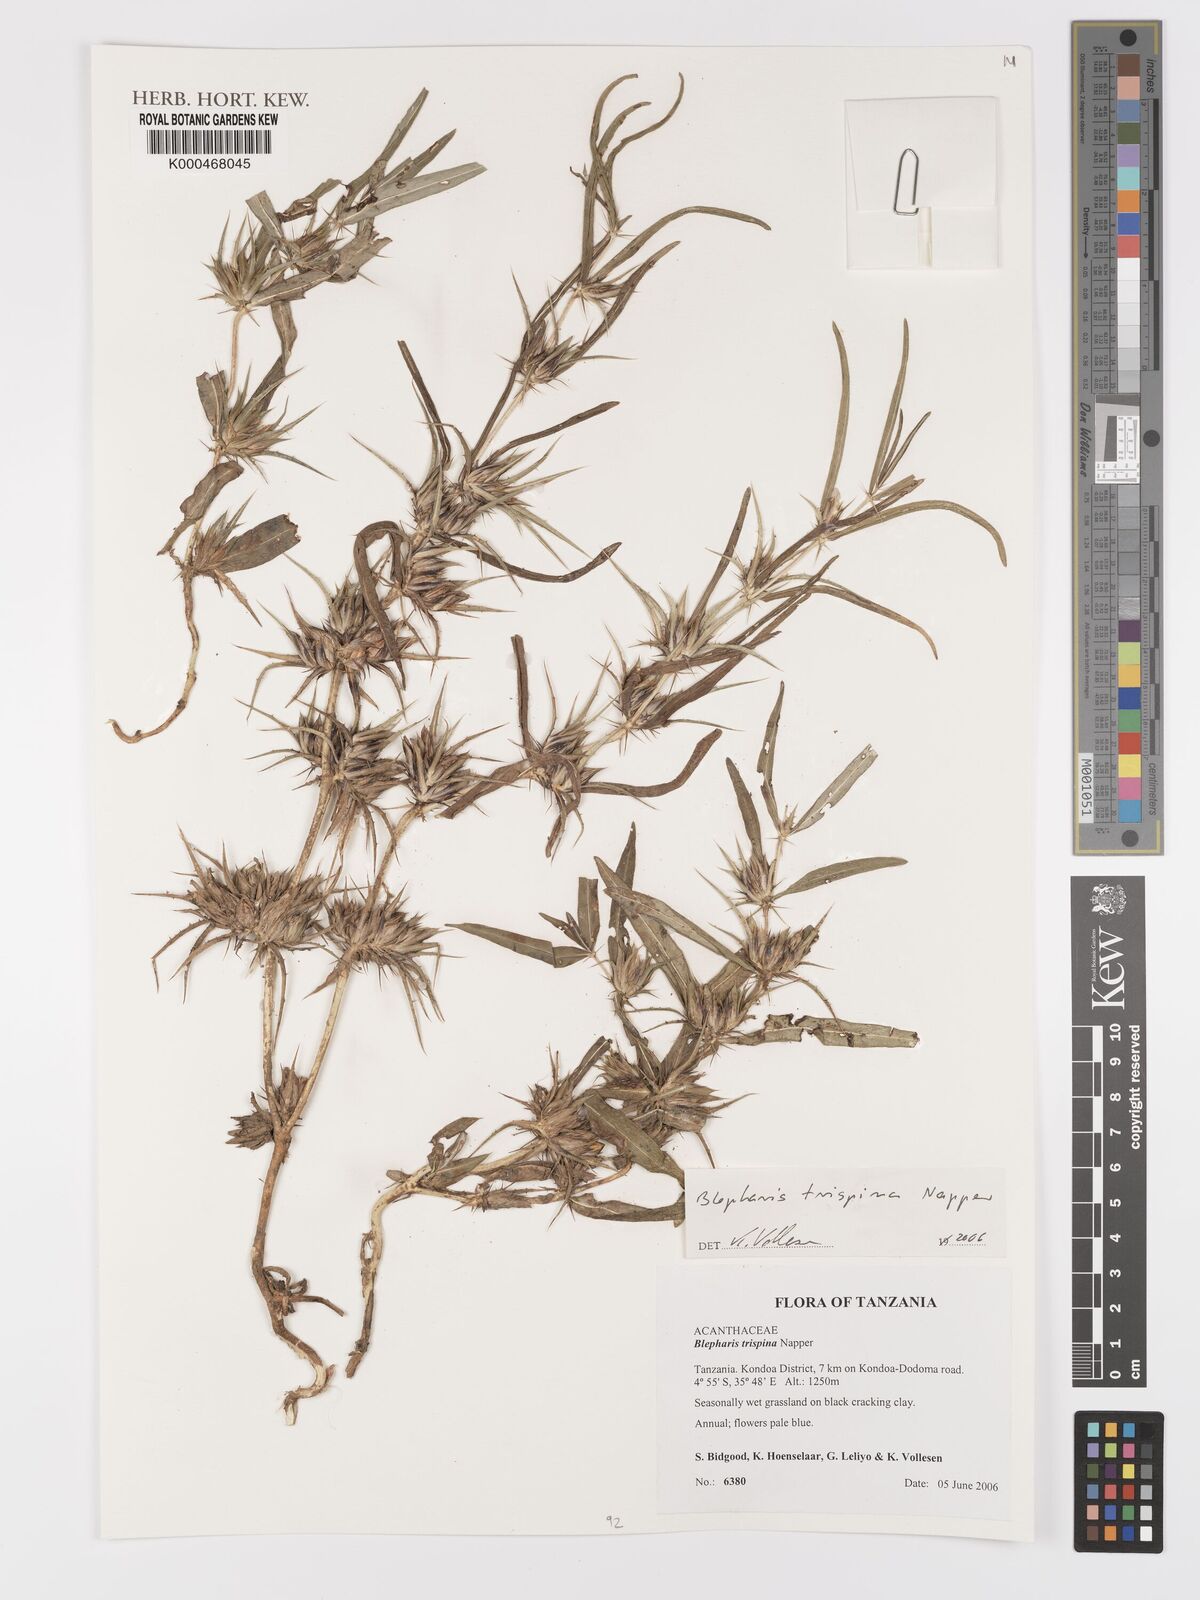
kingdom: Plantae
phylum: Tracheophyta
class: Magnoliopsida
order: Lamiales
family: Acanthaceae
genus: Blepharis
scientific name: Blepharis trispina
